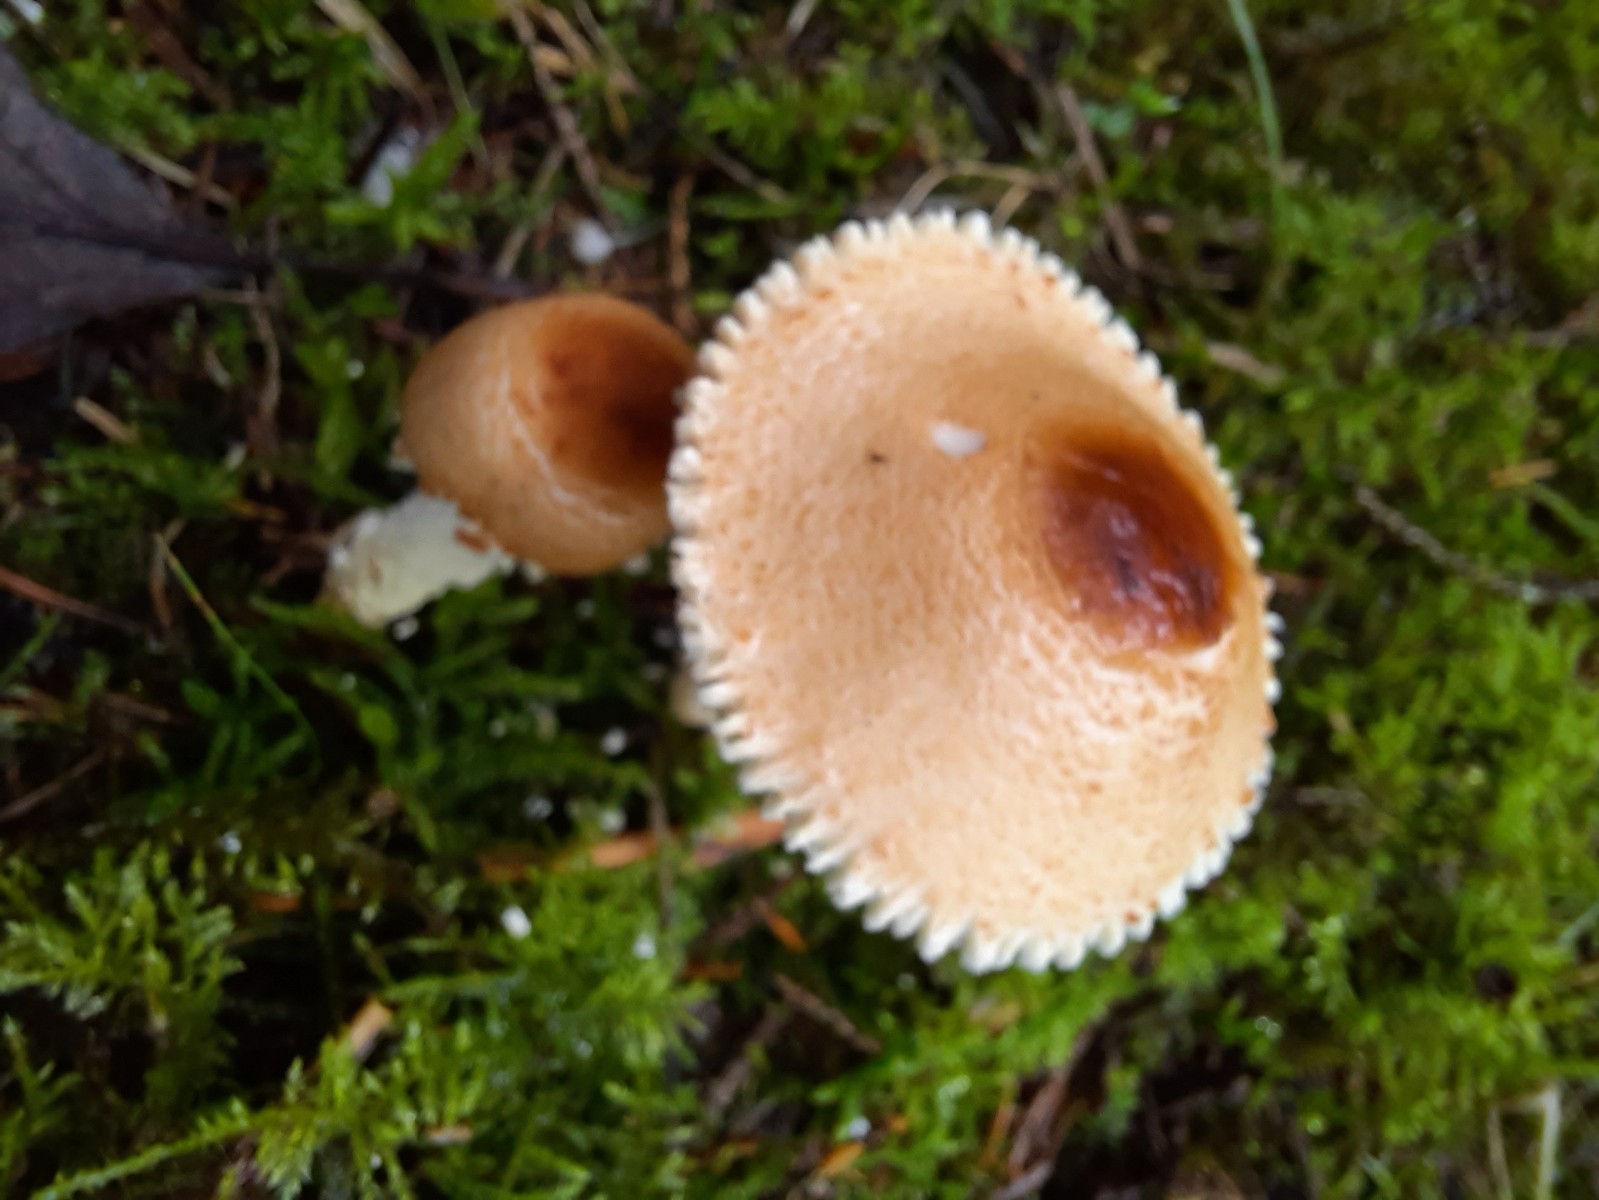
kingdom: Fungi
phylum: Basidiomycota
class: Agaricomycetes
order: Agaricales
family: Agaricaceae
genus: Lepiota
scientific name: Lepiota magnispora
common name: gulfnugget parasolhat
